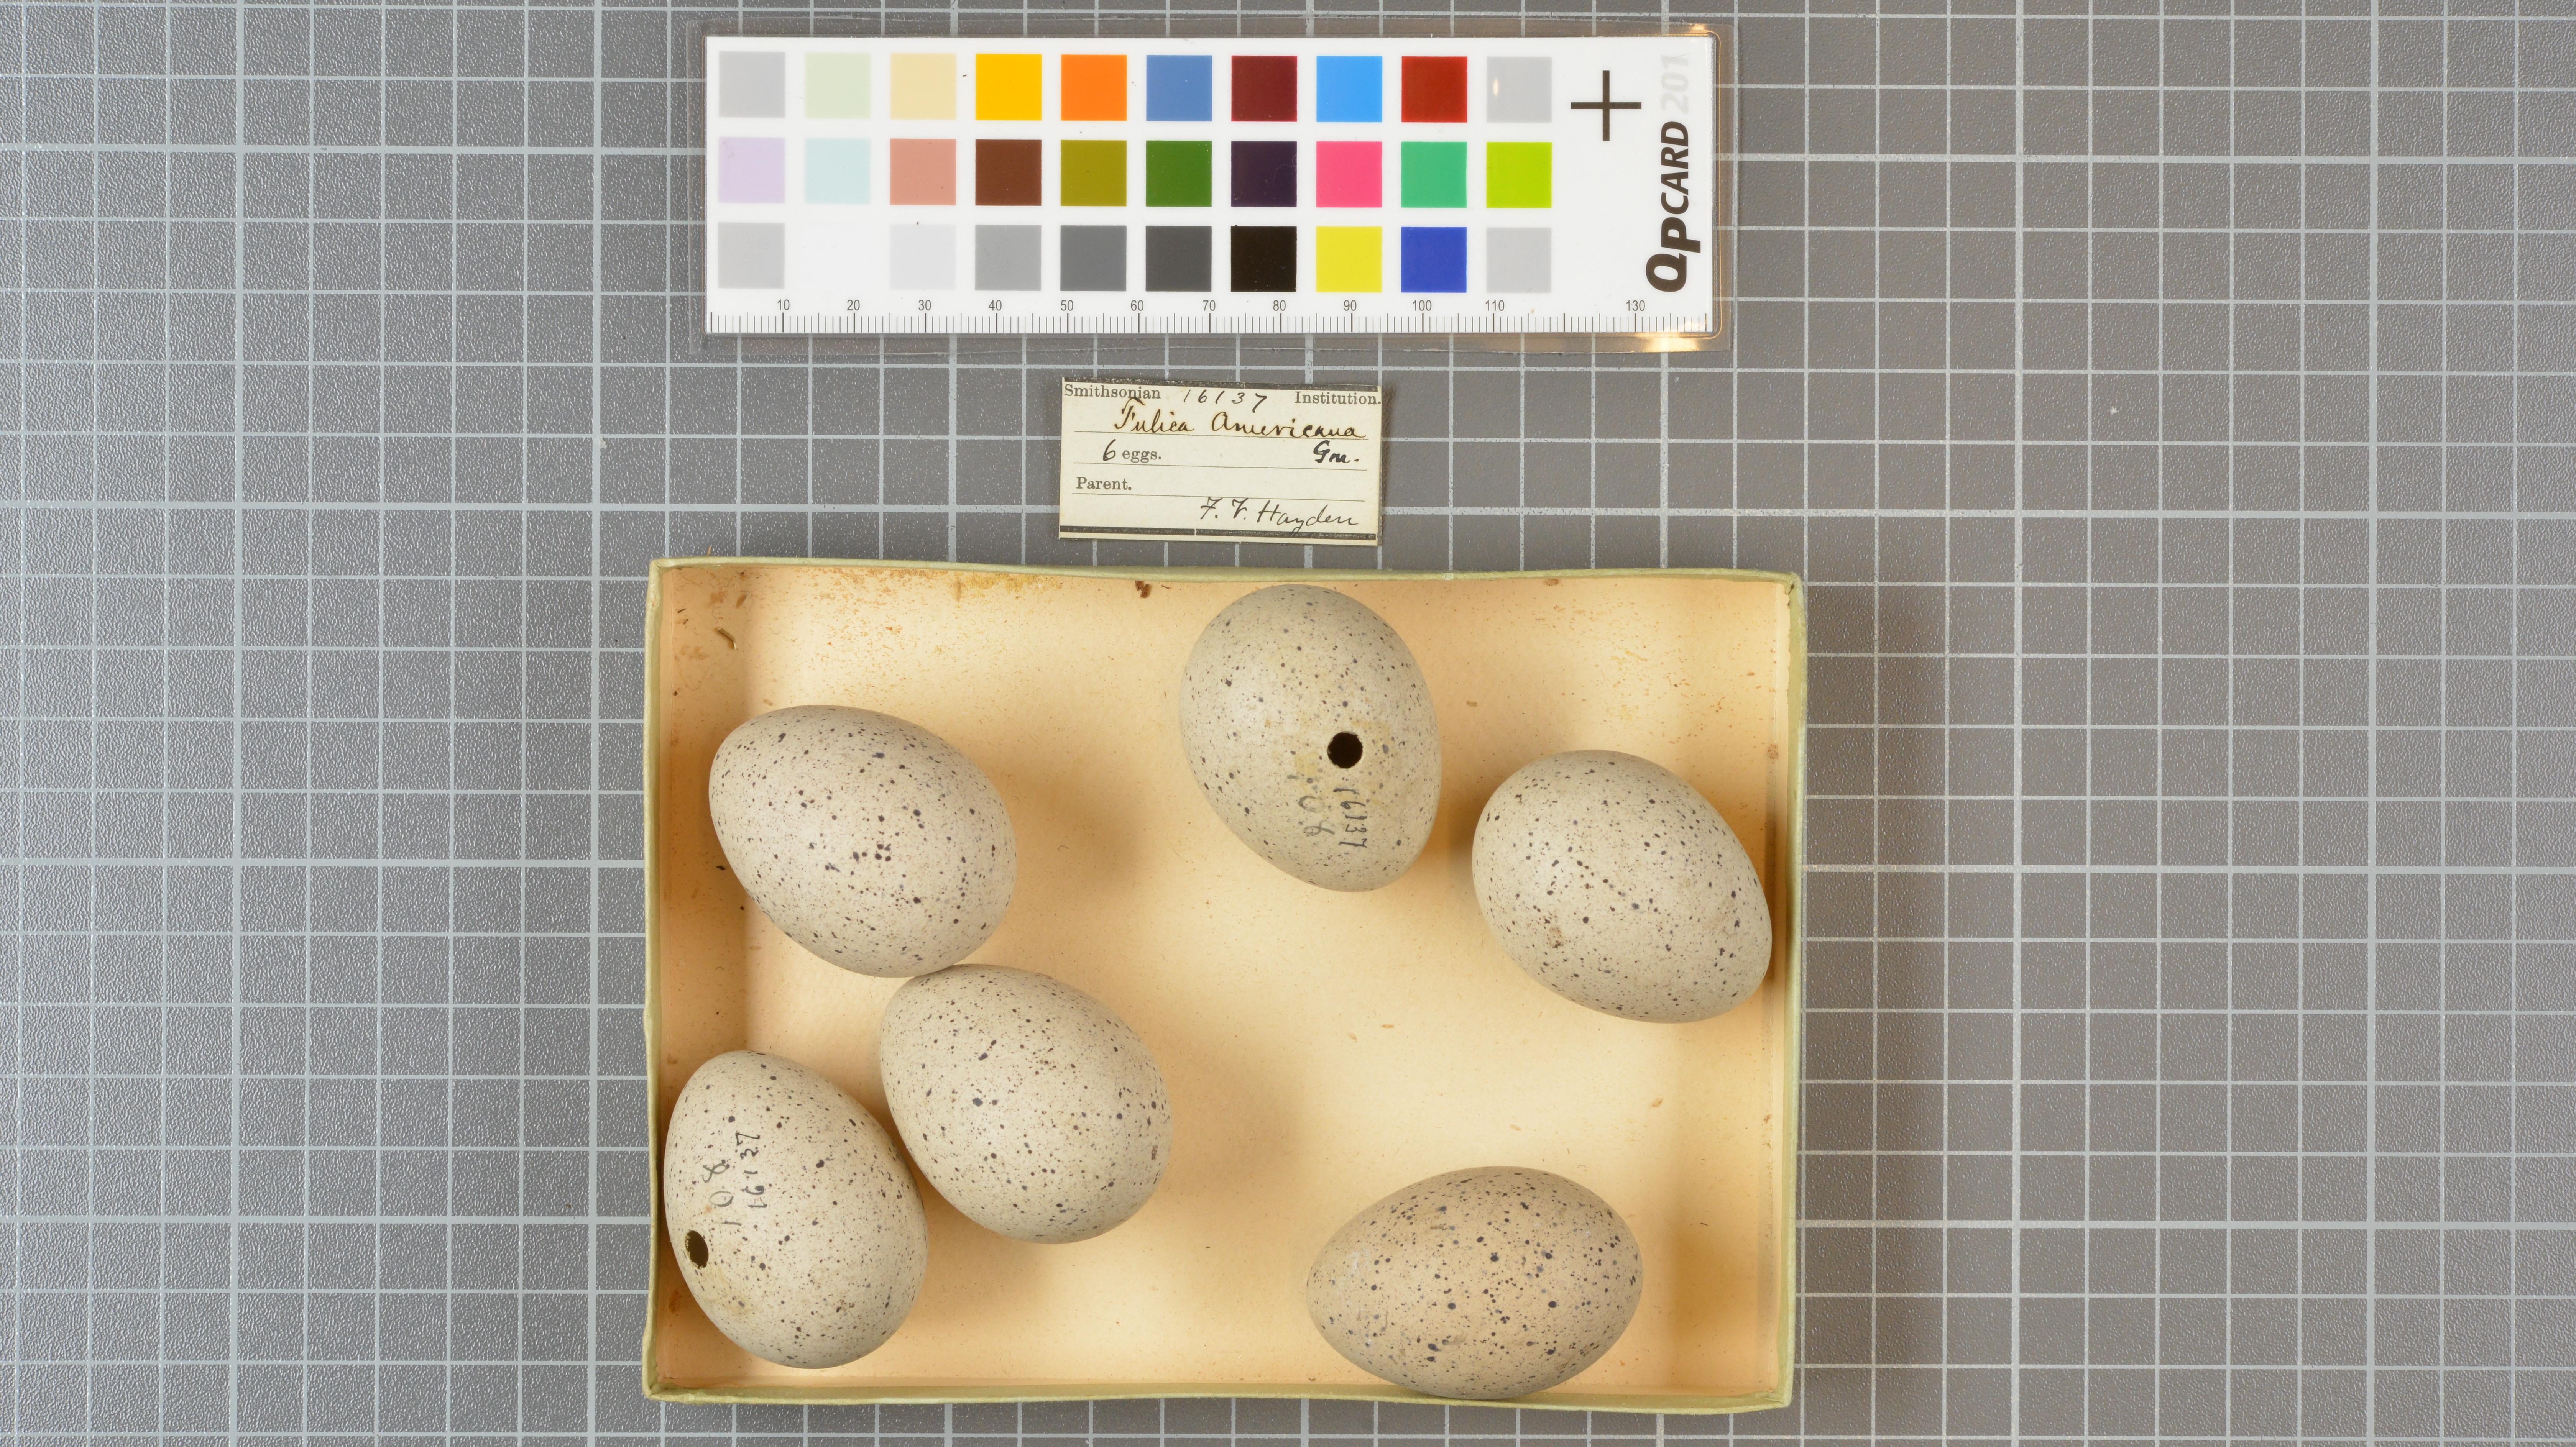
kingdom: Animalia
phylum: Chordata
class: Aves
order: Gruiformes
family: Rallidae
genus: Fulica
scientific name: Fulica americana
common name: American coot
